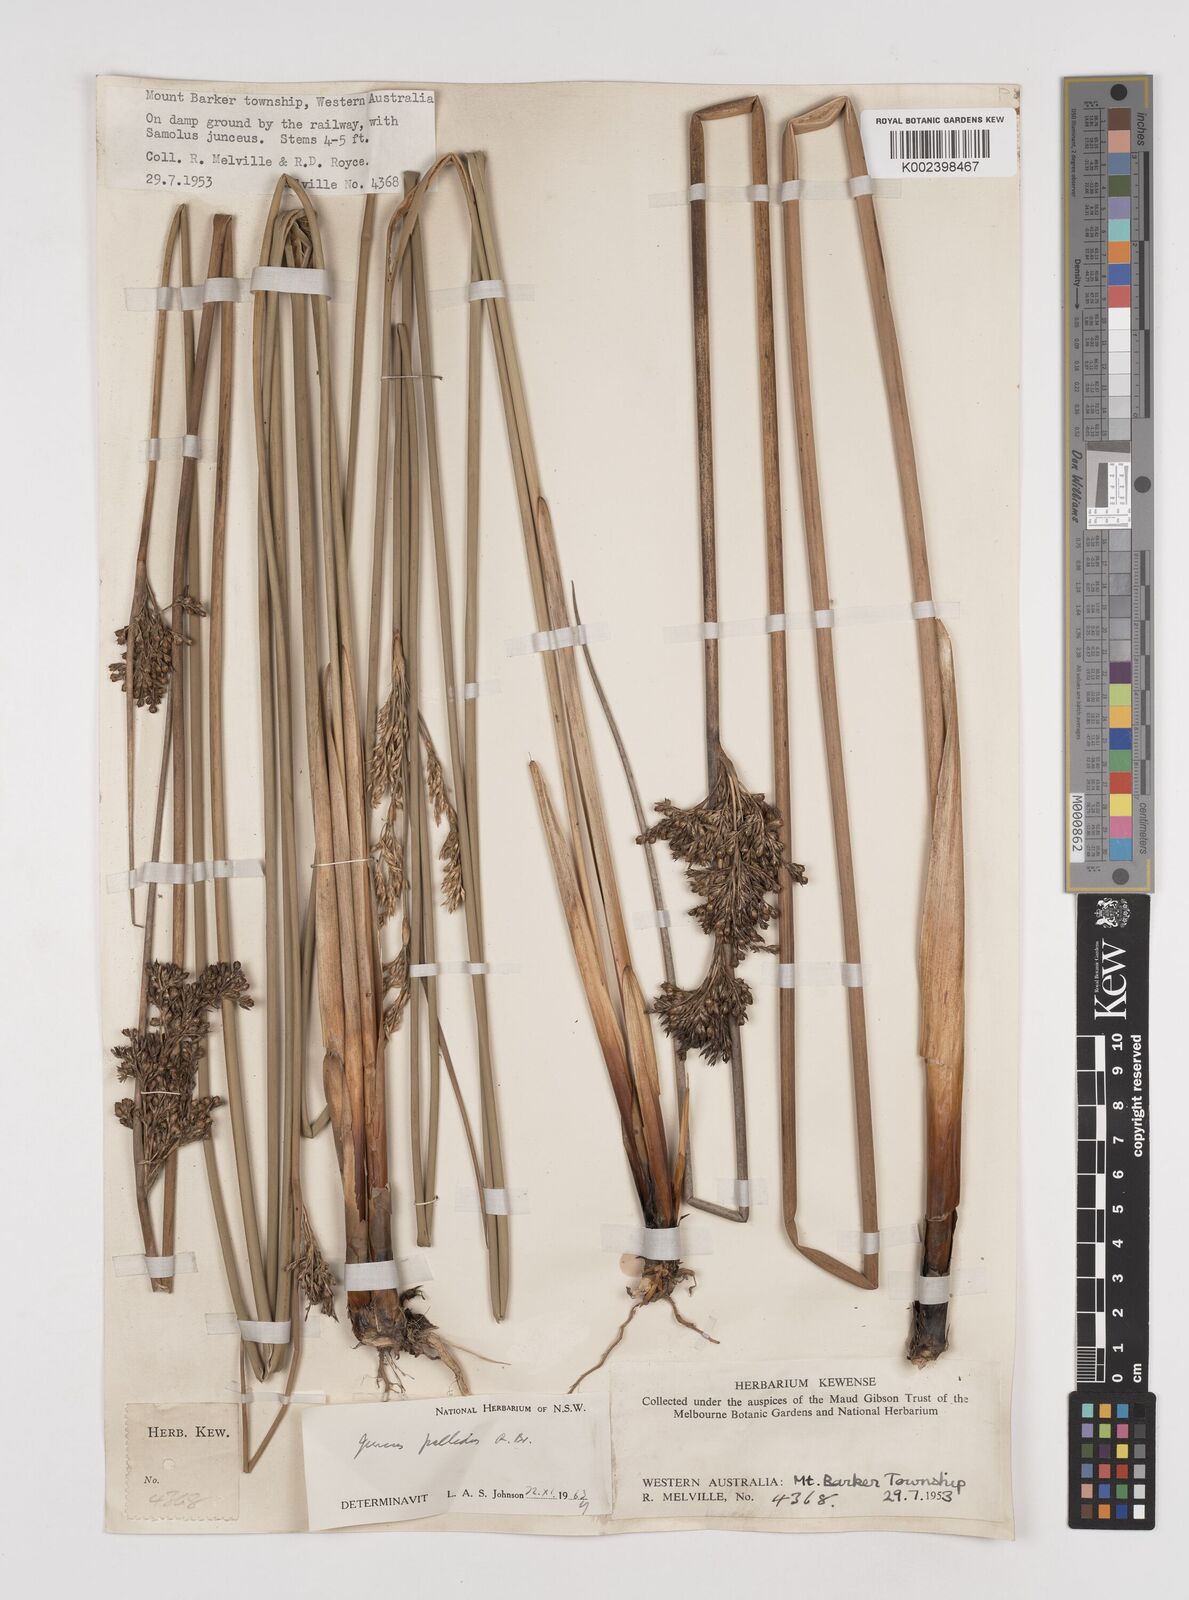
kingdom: Plantae
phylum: Tracheophyta
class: Liliopsida
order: Poales
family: Juncaceae
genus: Juncus
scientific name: Juncus pallidus
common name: Great soft-rush
